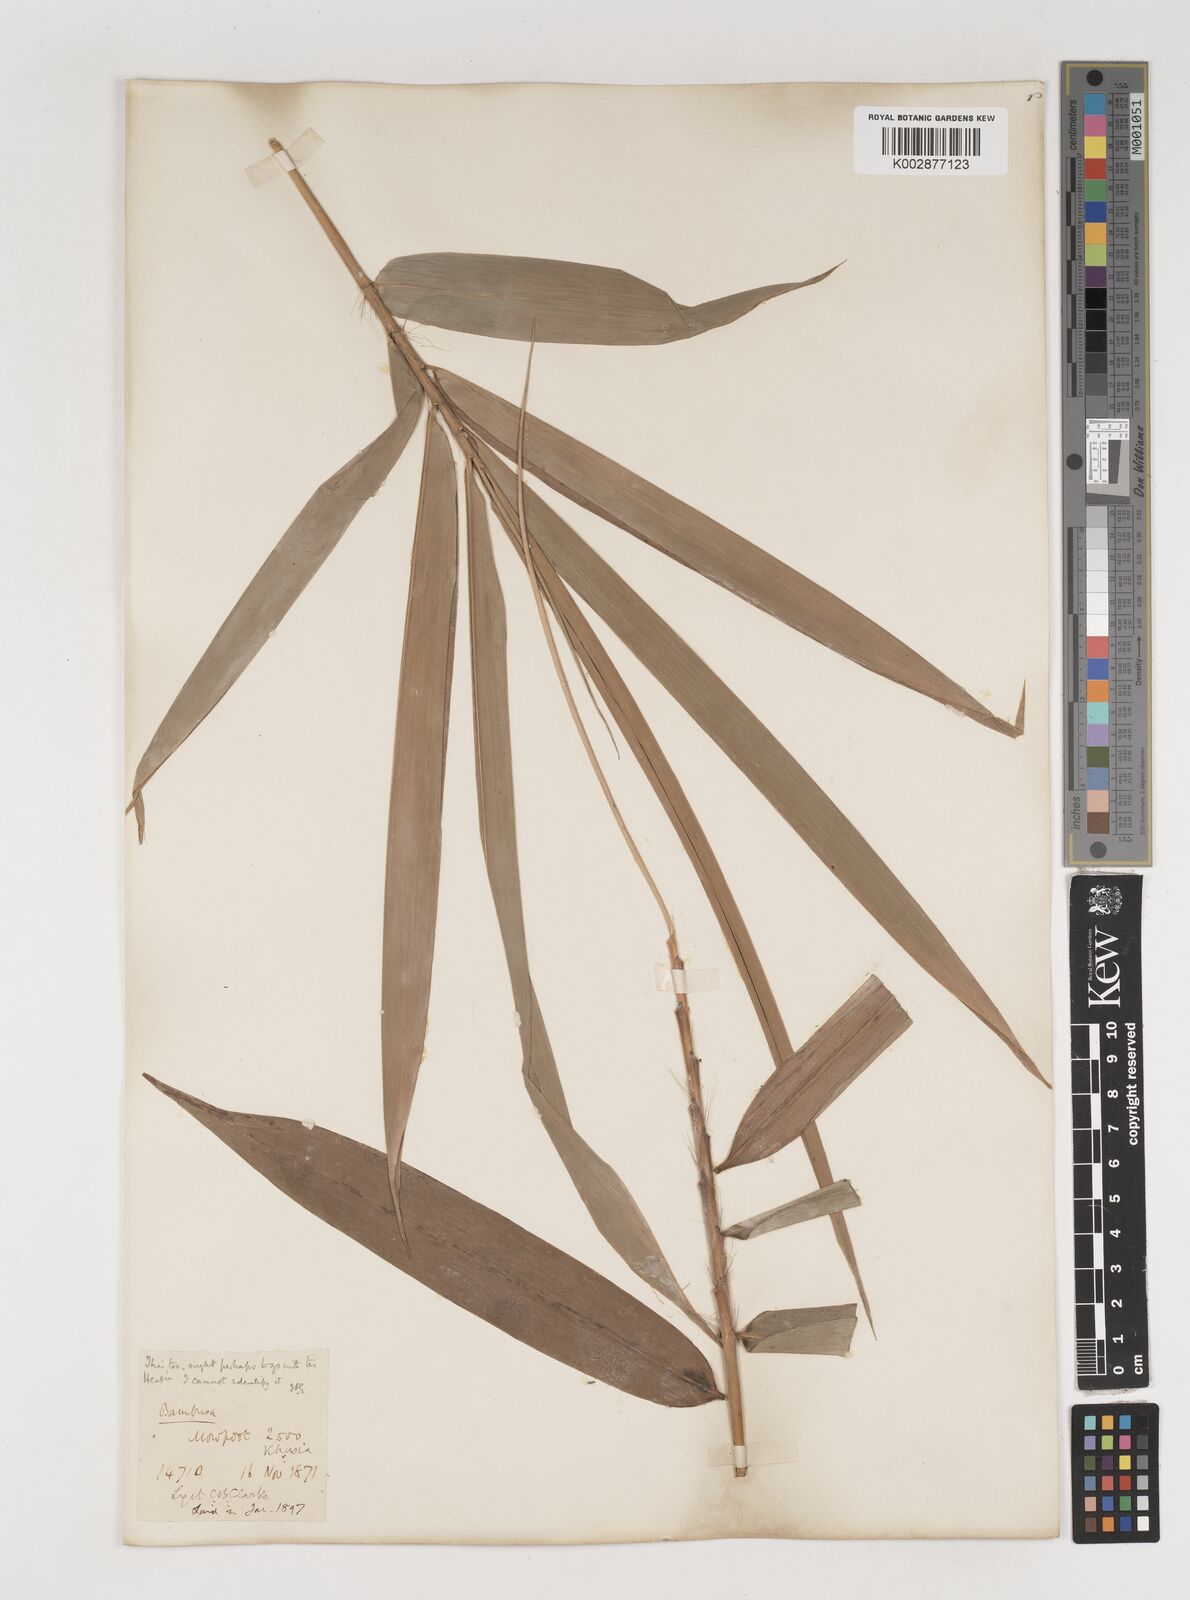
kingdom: Plantae
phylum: Tracheophyta
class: Liliopsida
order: Poales
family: Poaceae
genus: Bambusa
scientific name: Bambusa pallida
